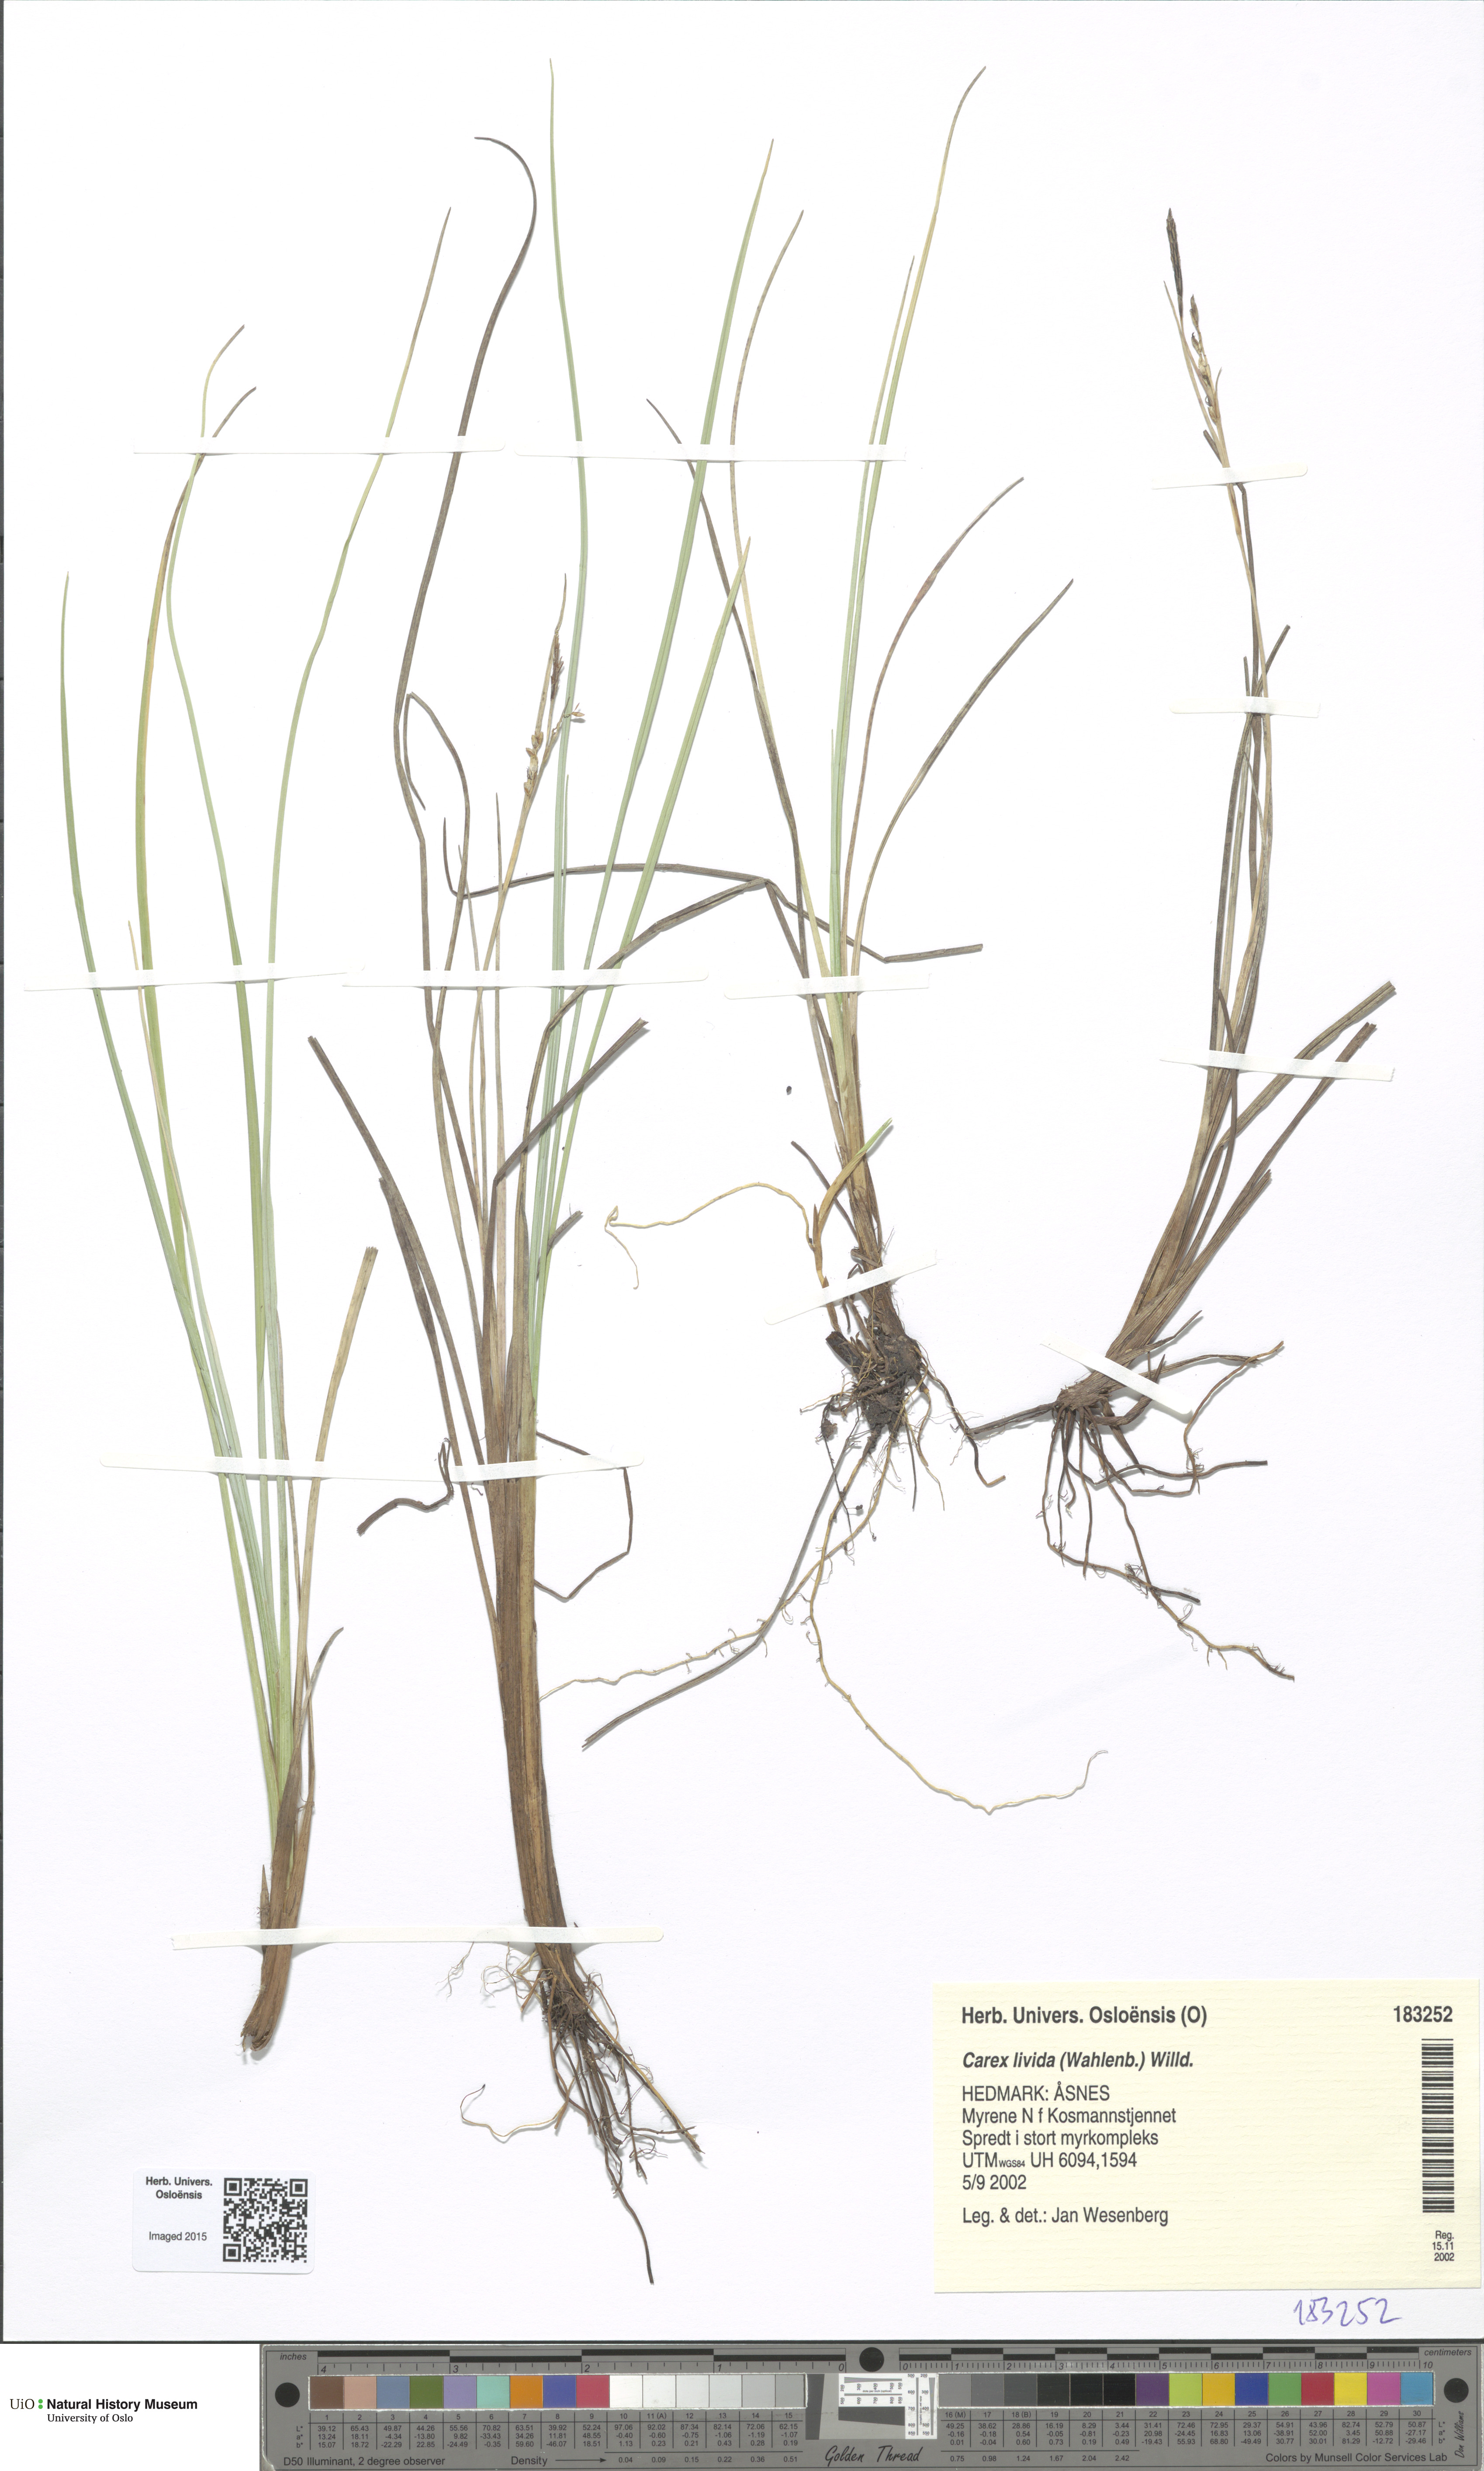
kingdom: Plantae
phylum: Tracheophyta
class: Liliopsida
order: Poales
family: Cyperaceae
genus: Carex
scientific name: Carex livida
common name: Livid sedge
